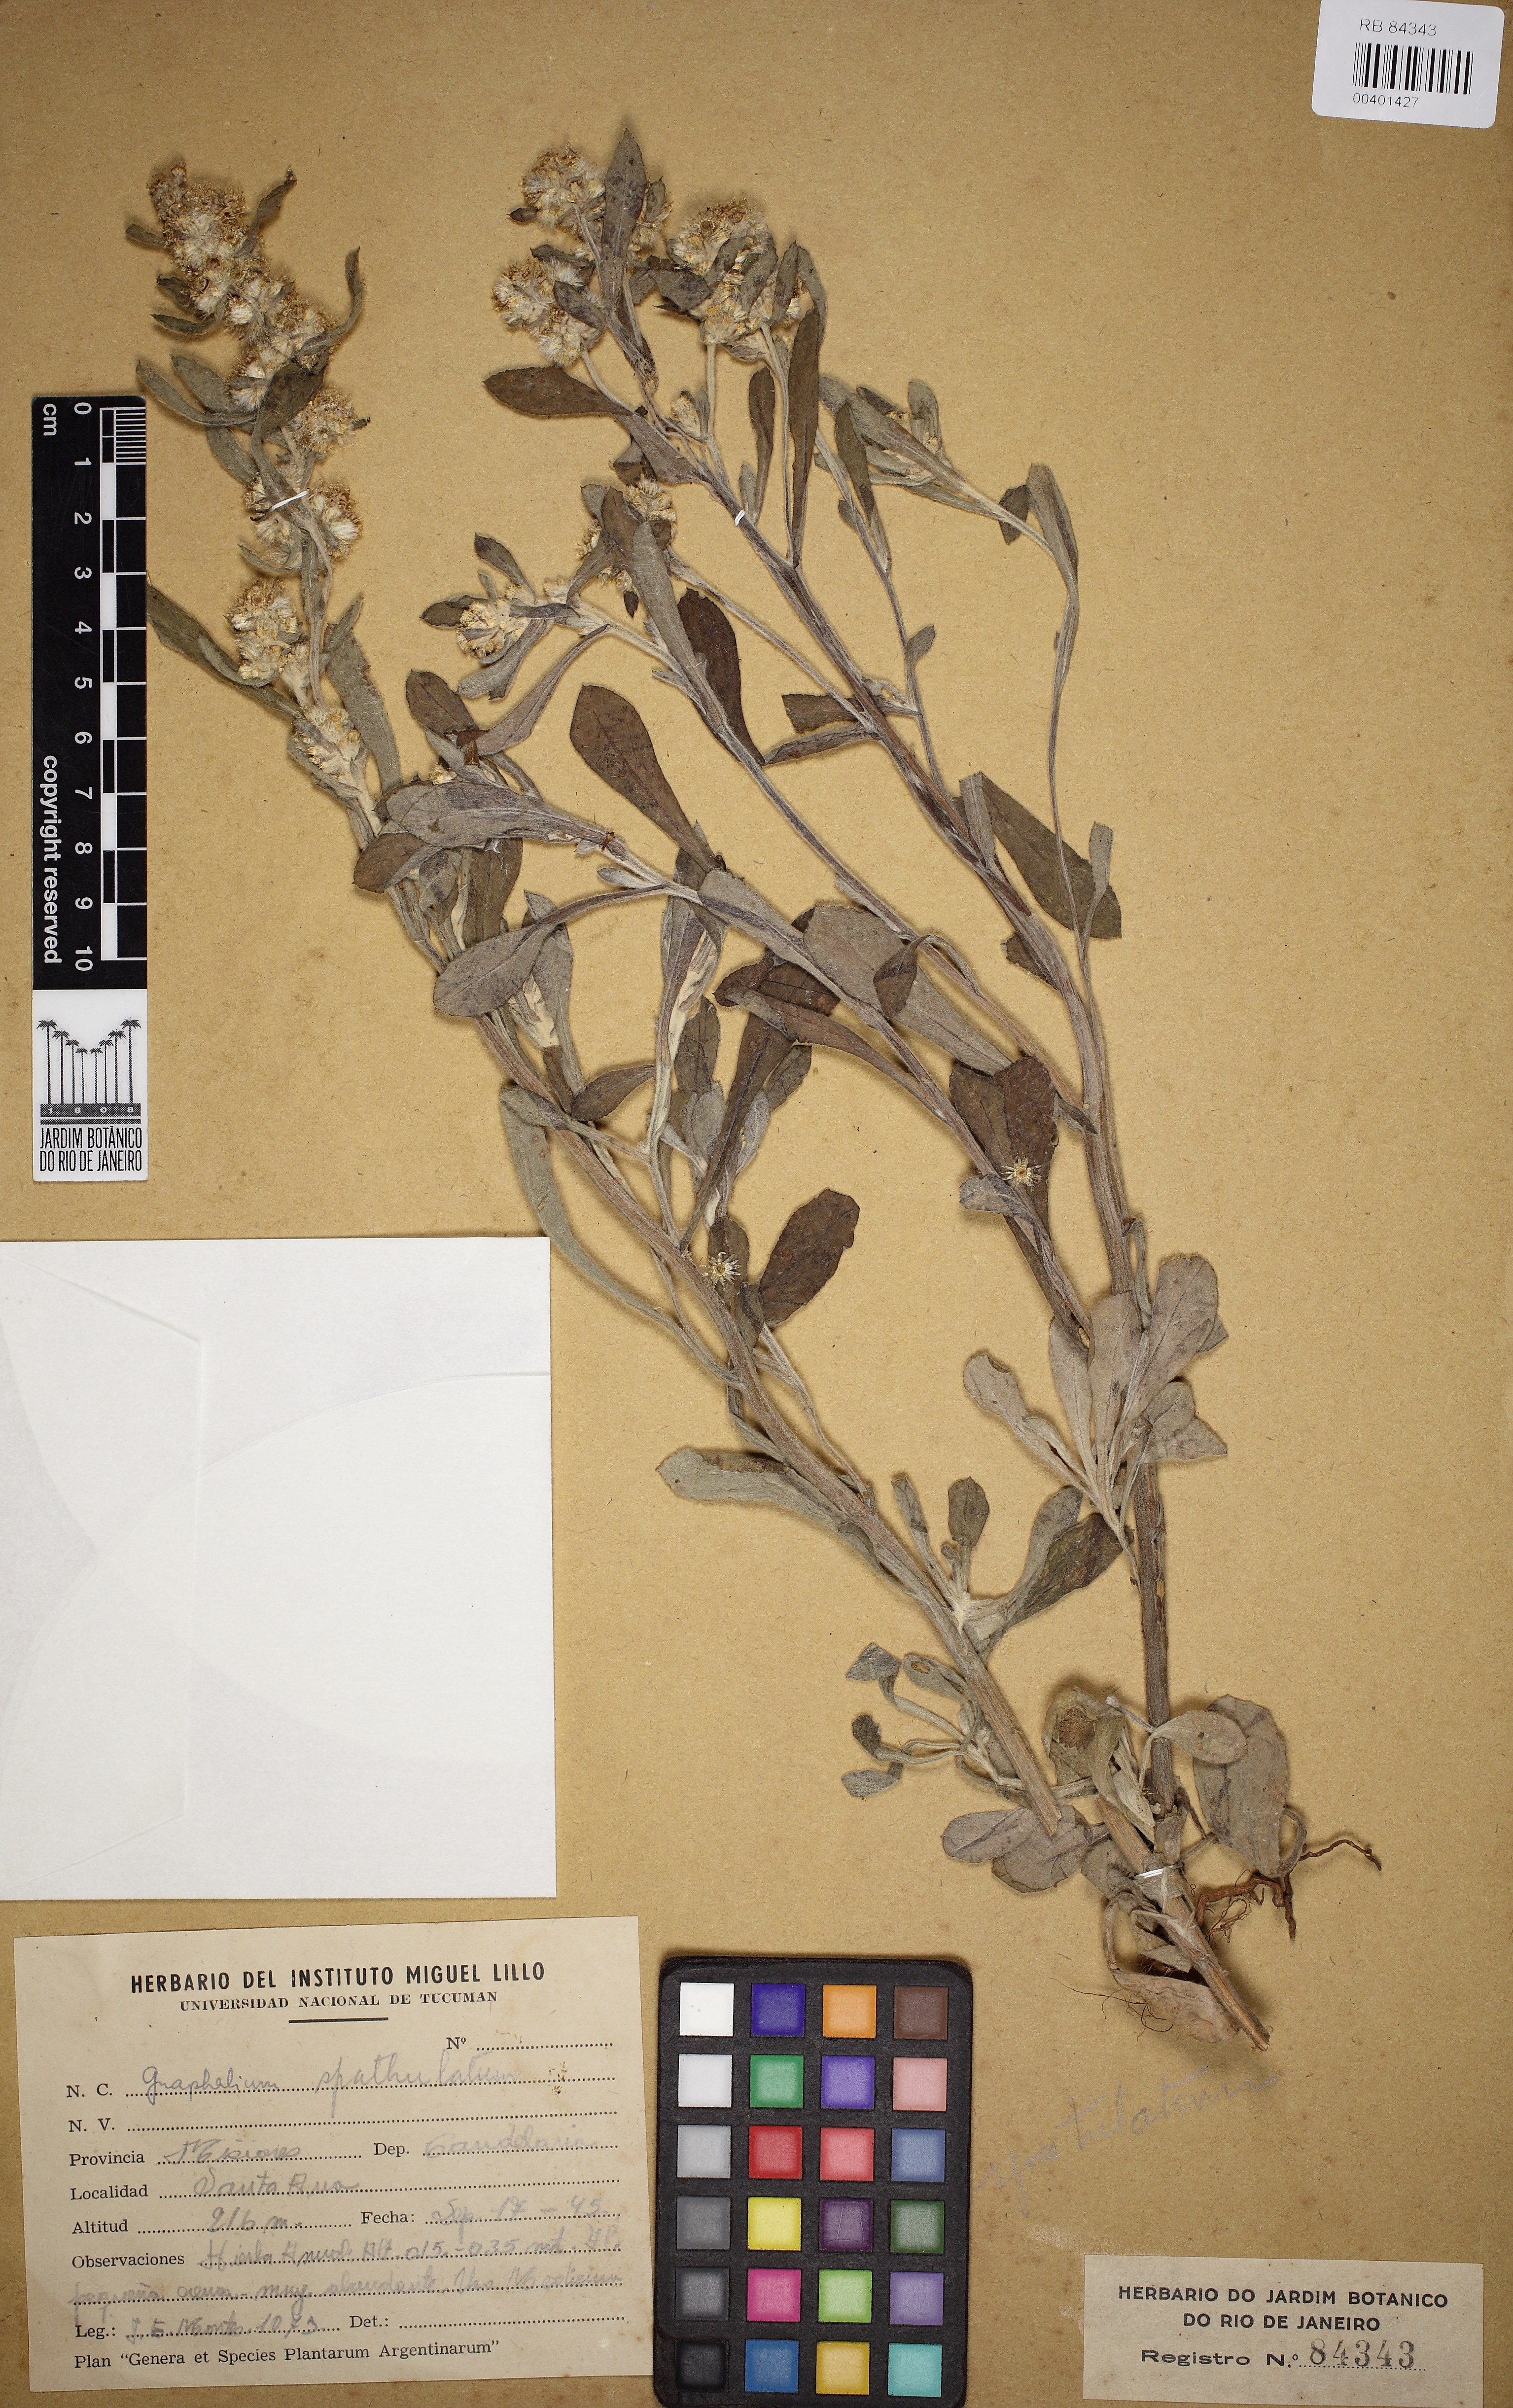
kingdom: Plantae
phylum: Tracheophyta
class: Magnoliopsida
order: Asterales
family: Asteraceae
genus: Pseudognaphalium
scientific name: Pseudognaphalium
